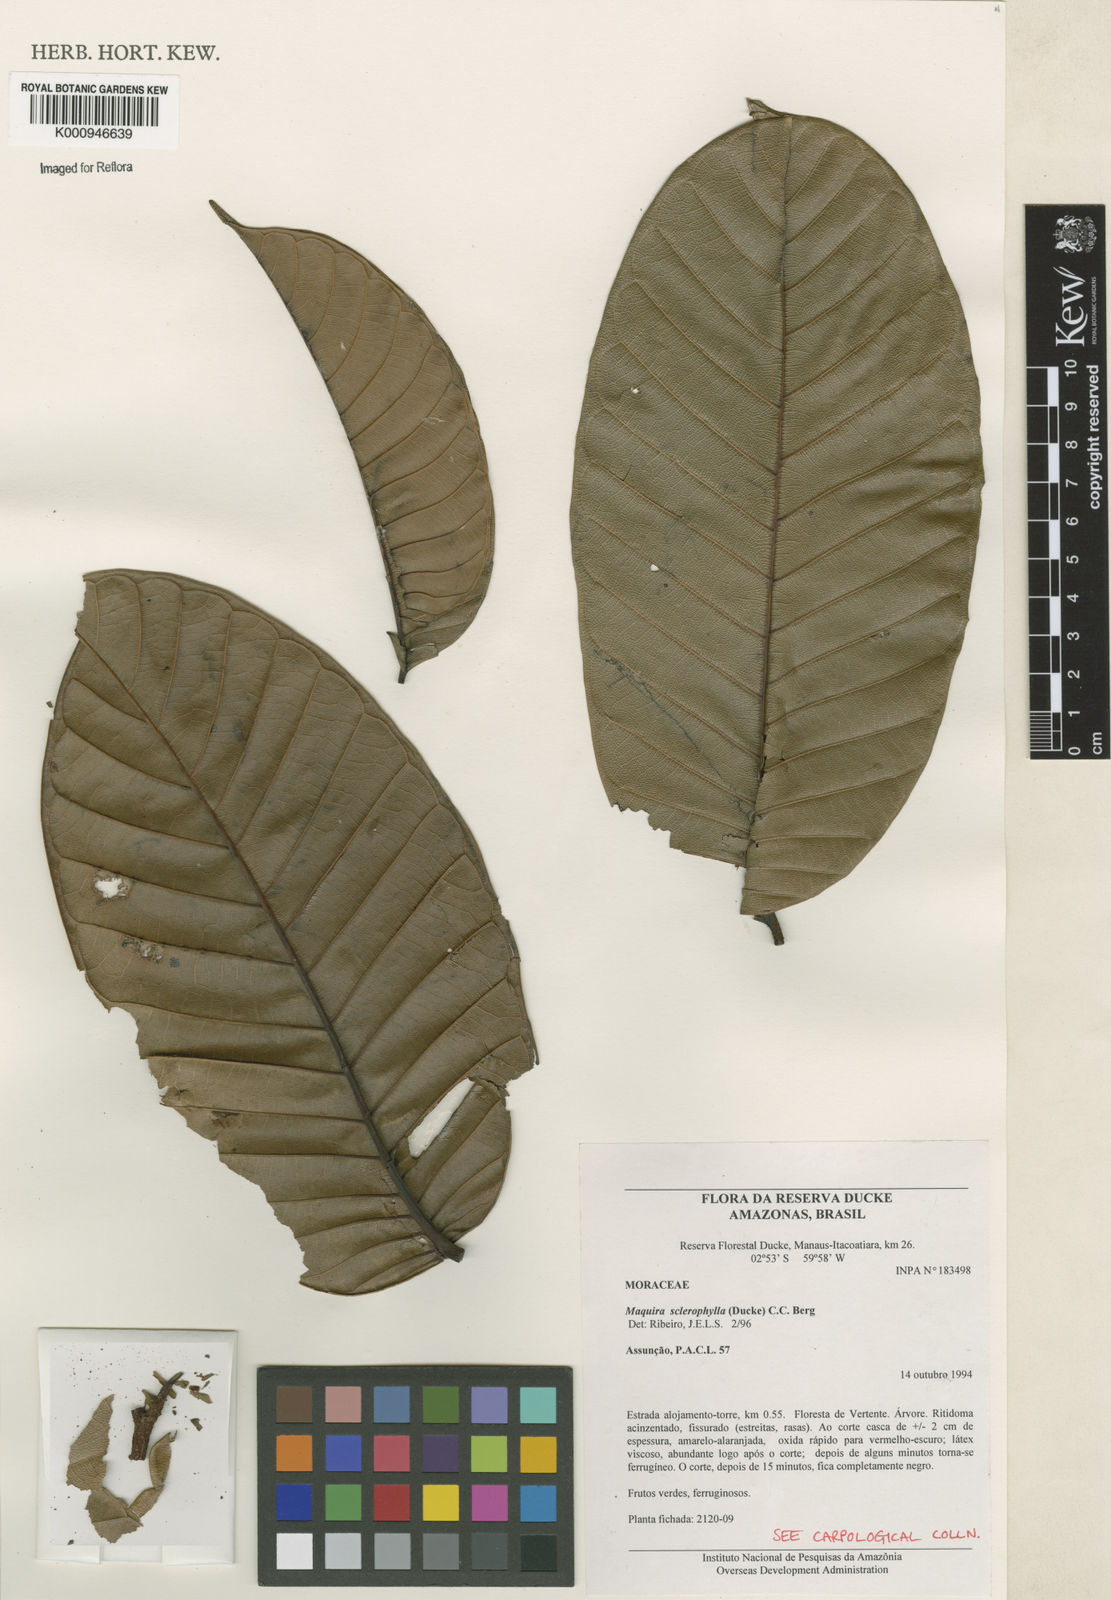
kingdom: Plantae
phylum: Tracheophyta
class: Magnoliopsida
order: Rosales
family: Moraceae
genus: Maquira
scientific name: Maquira sclerophylla
